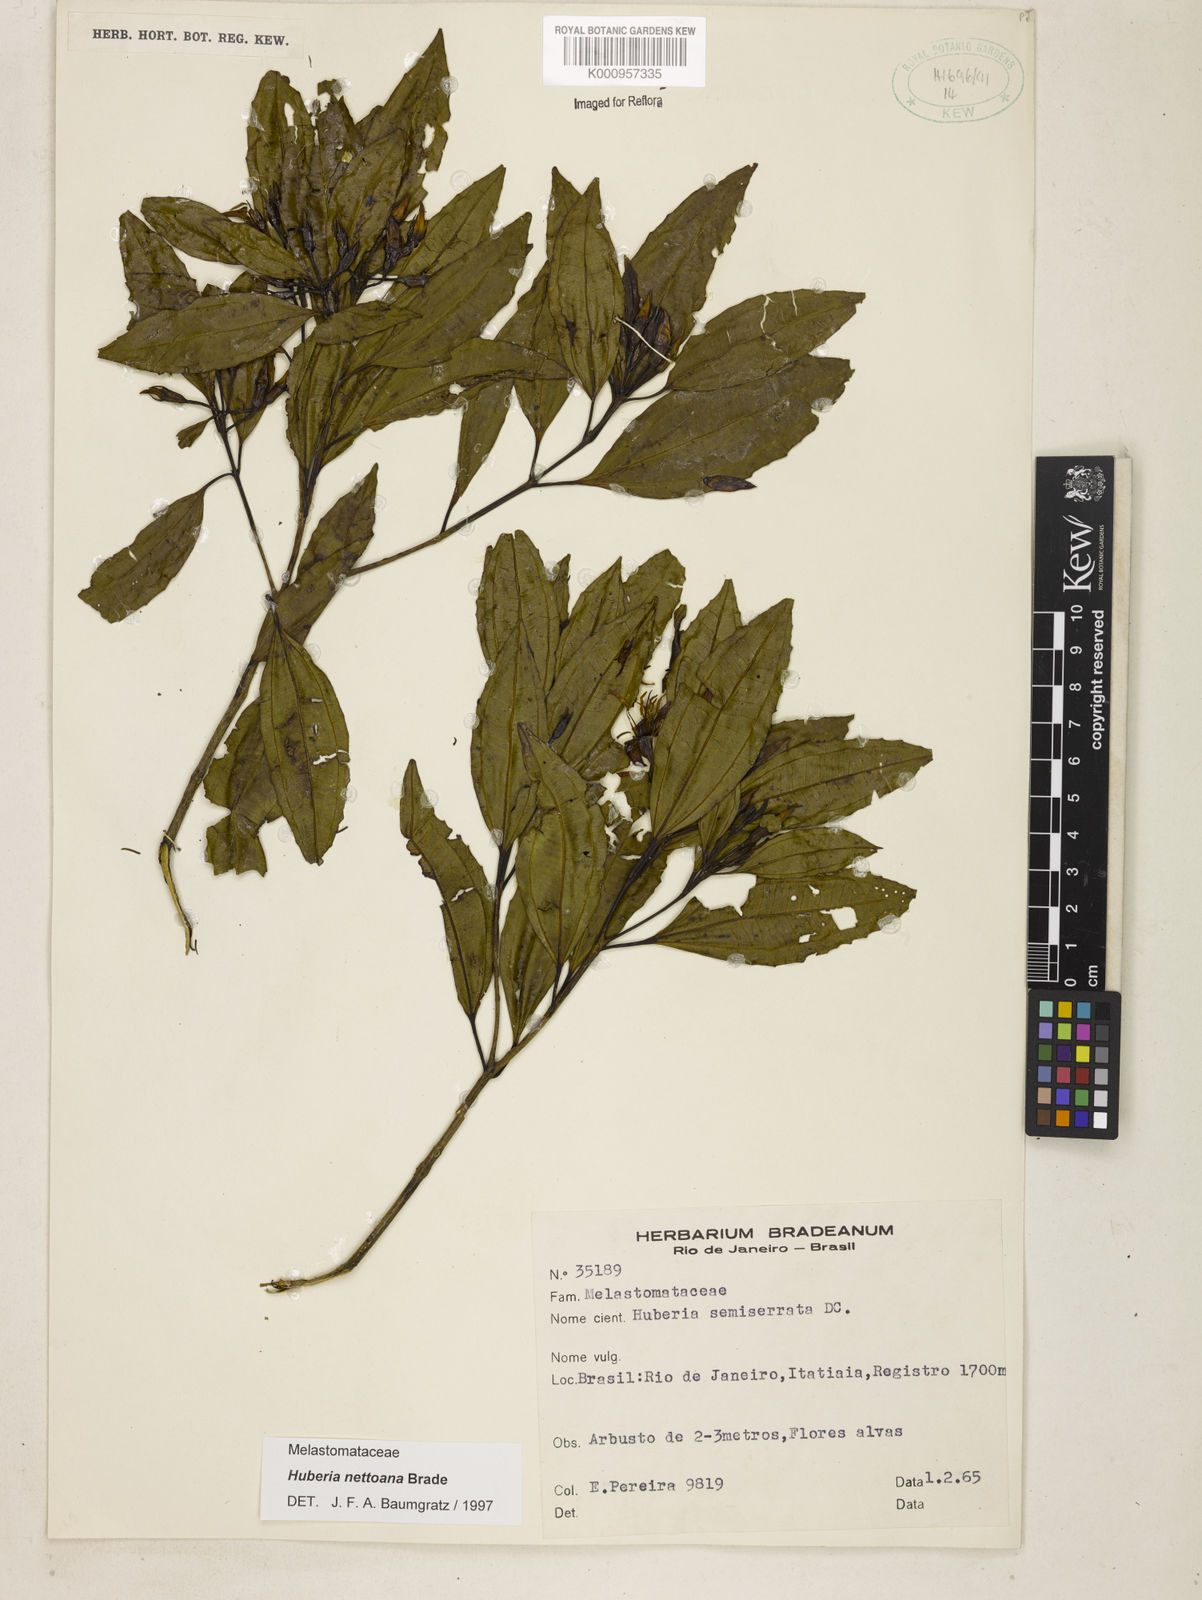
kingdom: Plantae
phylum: Tracheophyta
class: Magnoliopsida
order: Myrtales
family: Melastomataceae
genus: Huberia
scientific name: Huberia nettoana
